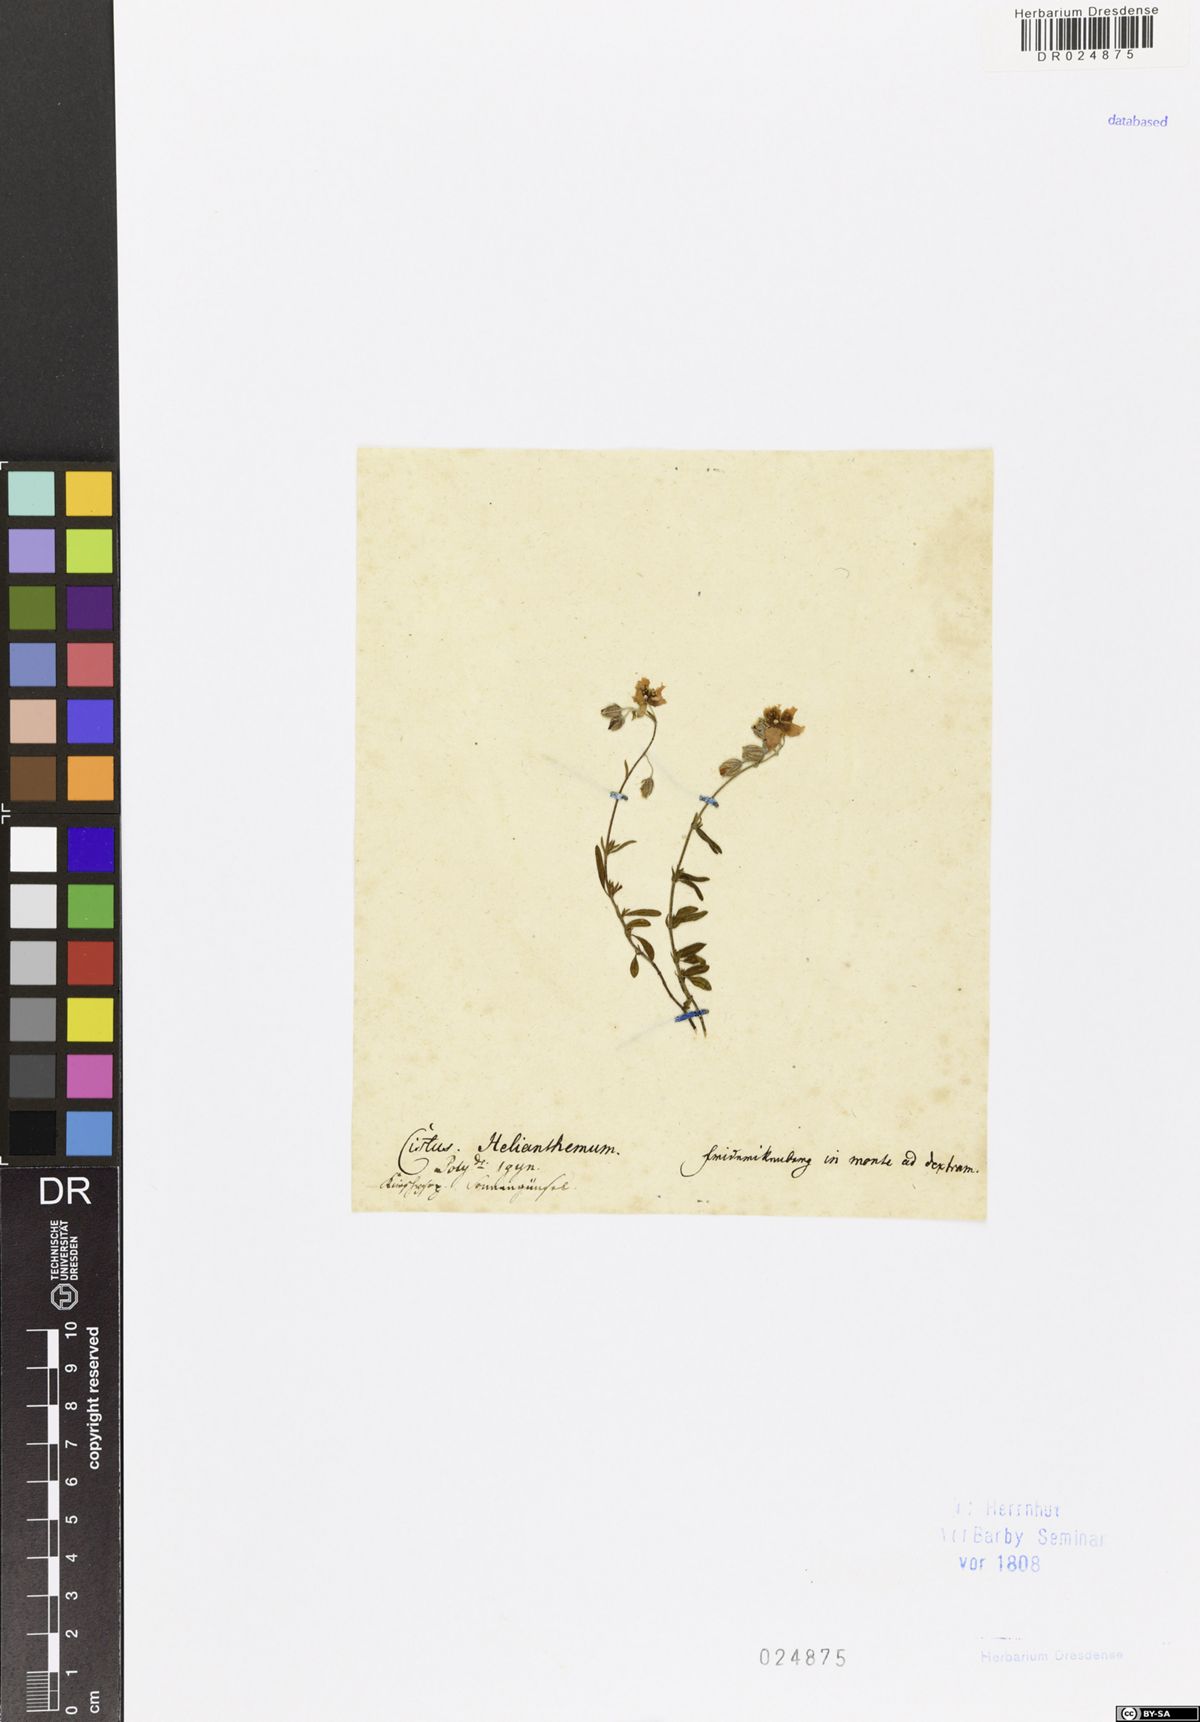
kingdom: Plantae
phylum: Tracheophyta
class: Magnoliopsida
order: Malvales
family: Cistaceae
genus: Helianthemum
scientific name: Helianthemum nummularium
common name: Common rock-rose
